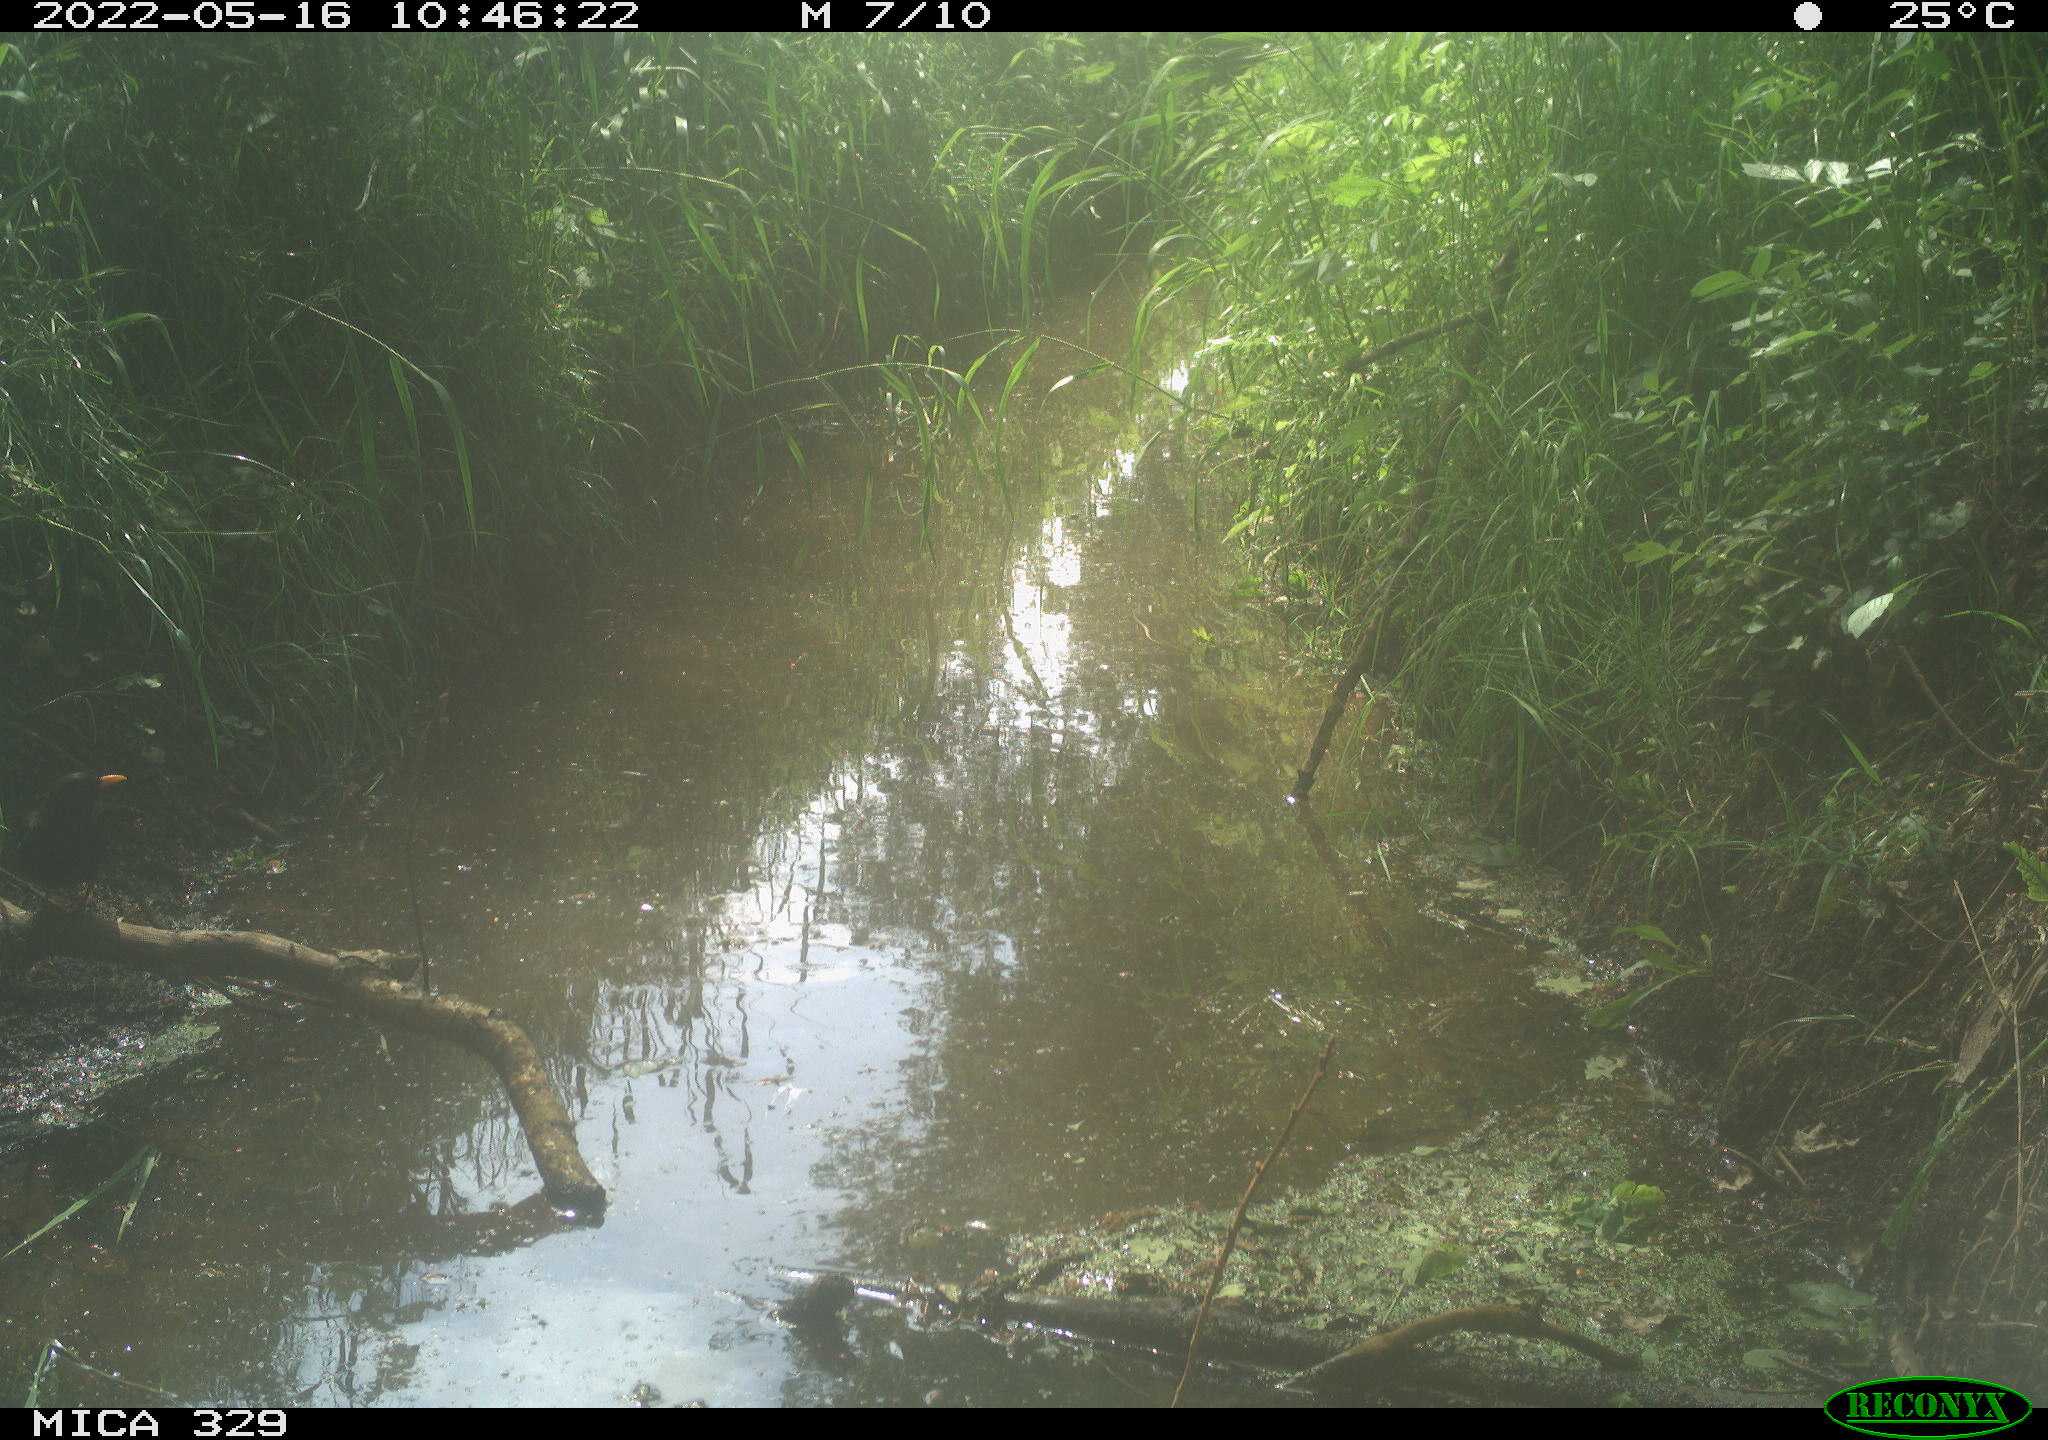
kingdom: Animalia
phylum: Chordata
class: Aves
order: Passeriformes
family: Turdidae
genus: Turdus
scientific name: Turdus merula
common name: Common blackbird
